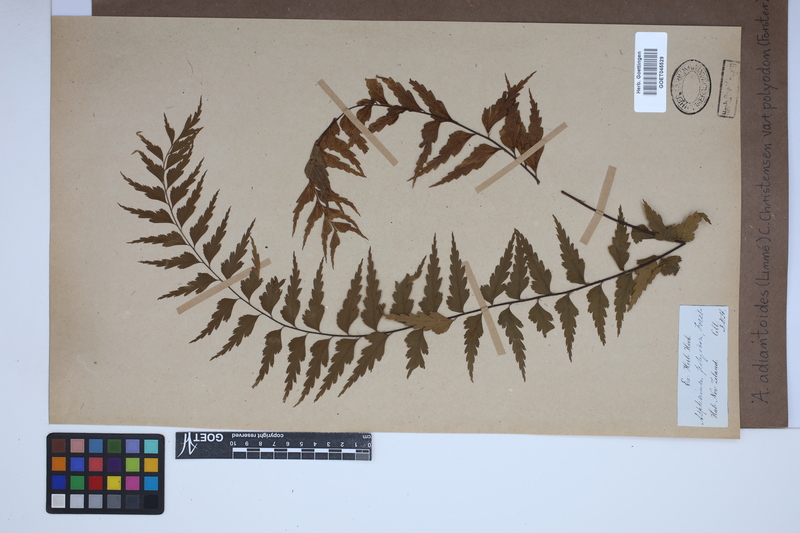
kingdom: Plantae
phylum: Tracheophyta
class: Polypodiopsida
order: Polypodiales
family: Aspleniaceae
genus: Asplenium
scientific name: Asplenium polyodon
